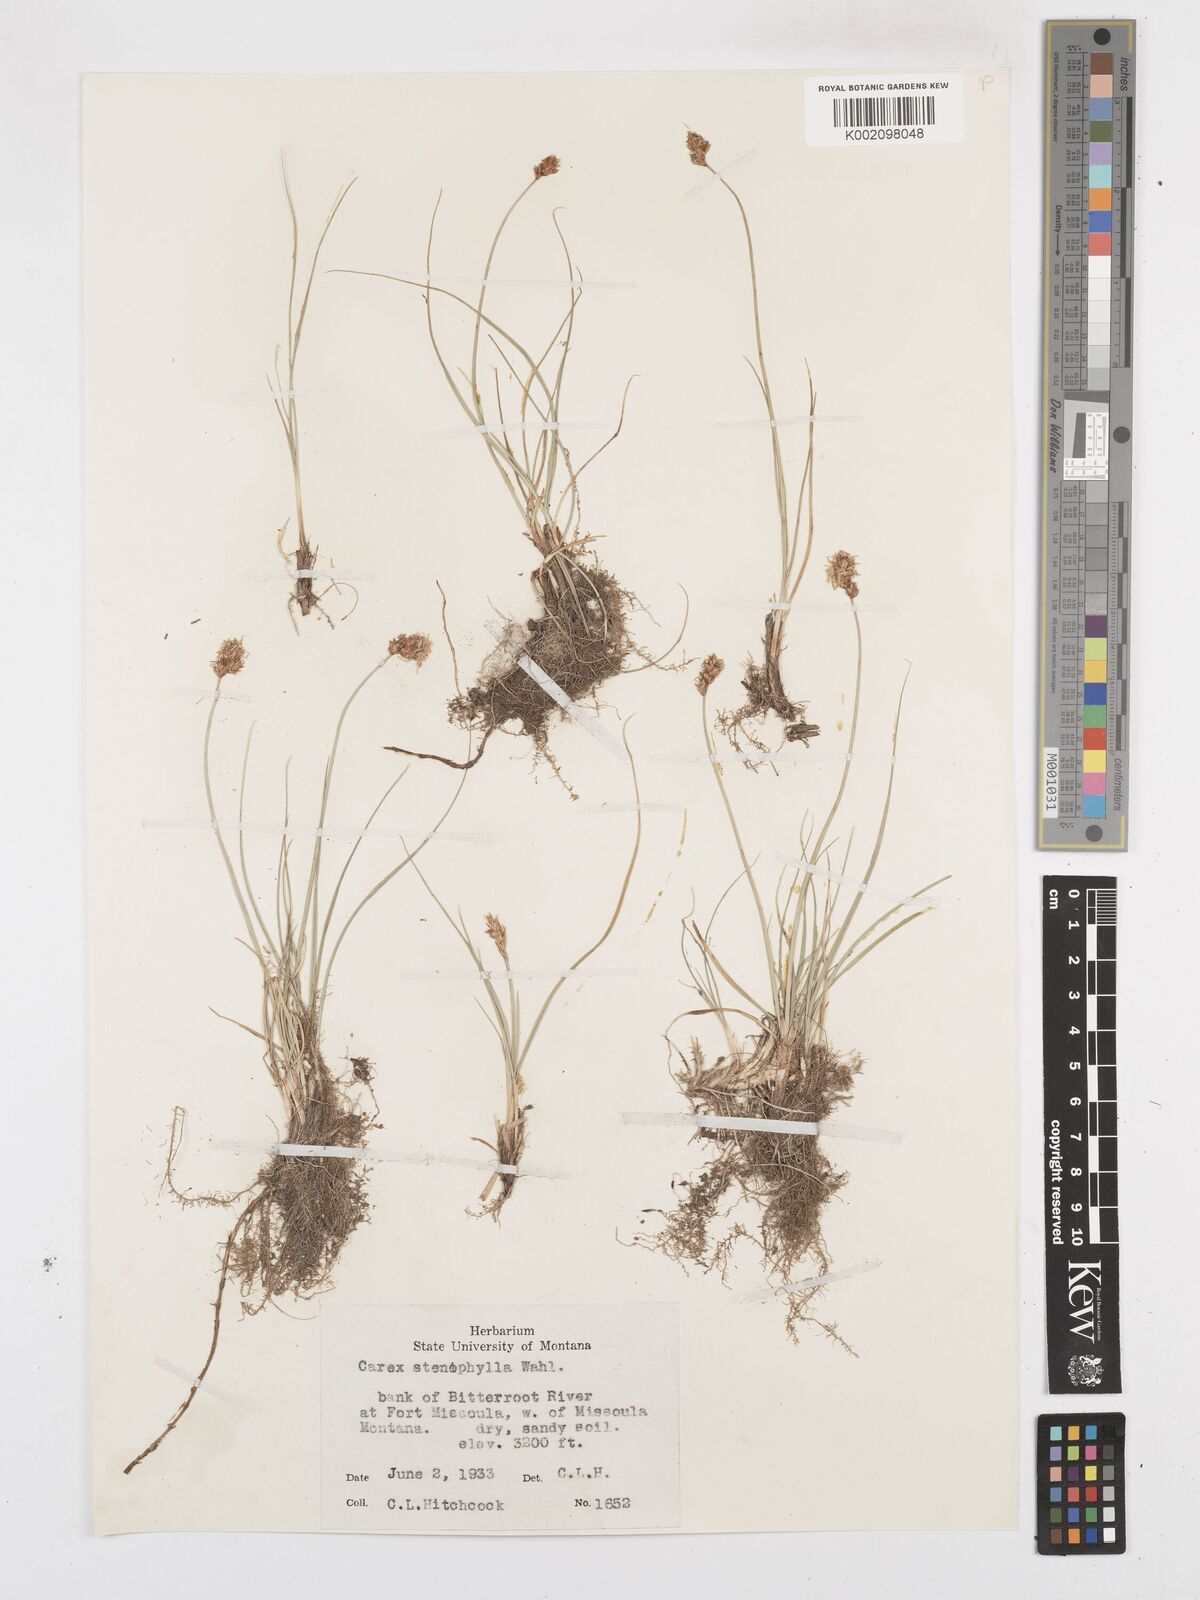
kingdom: Plantae
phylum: Tracheophyta
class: Liliopsida
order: Poales
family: Cyperaceae
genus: Carex
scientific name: Carex duriuscula
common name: Involute-leaved sedge
